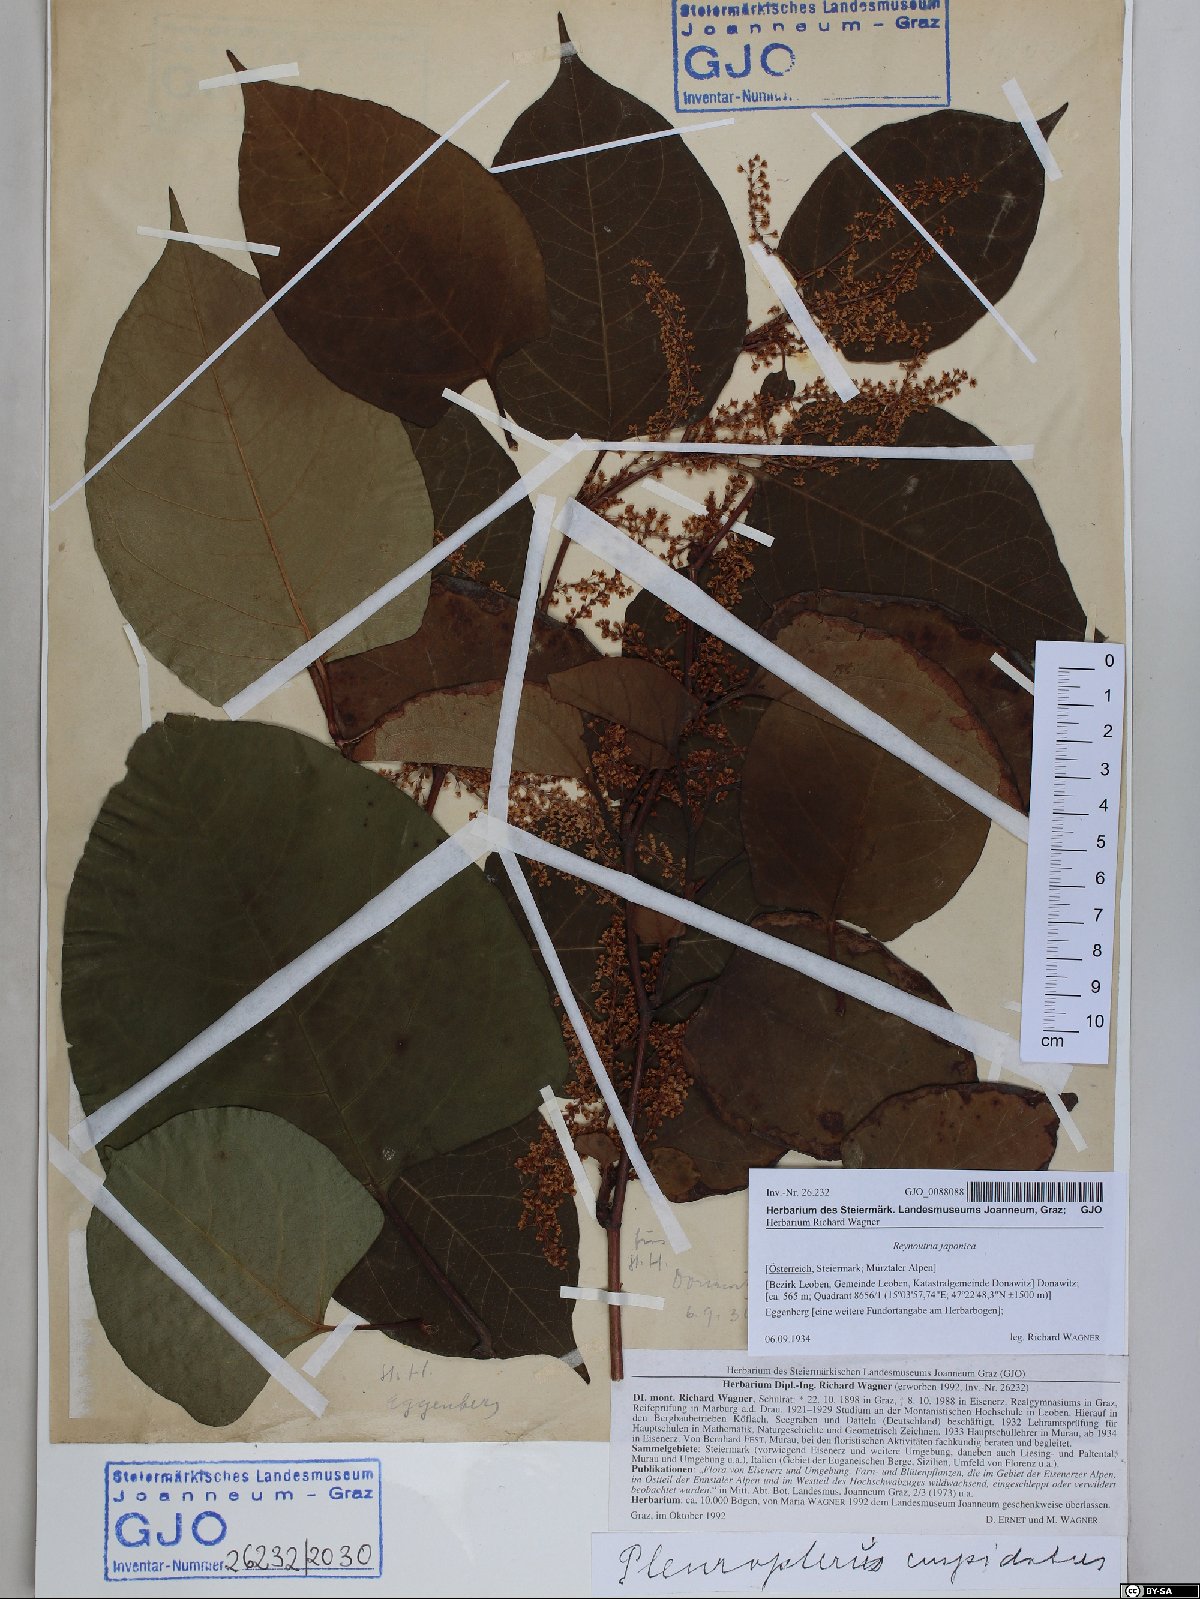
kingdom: Plantae
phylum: Tracheophyta
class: Magnoliopsida
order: Caryophyllales
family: Polygonaceae
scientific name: Polygonaceae
